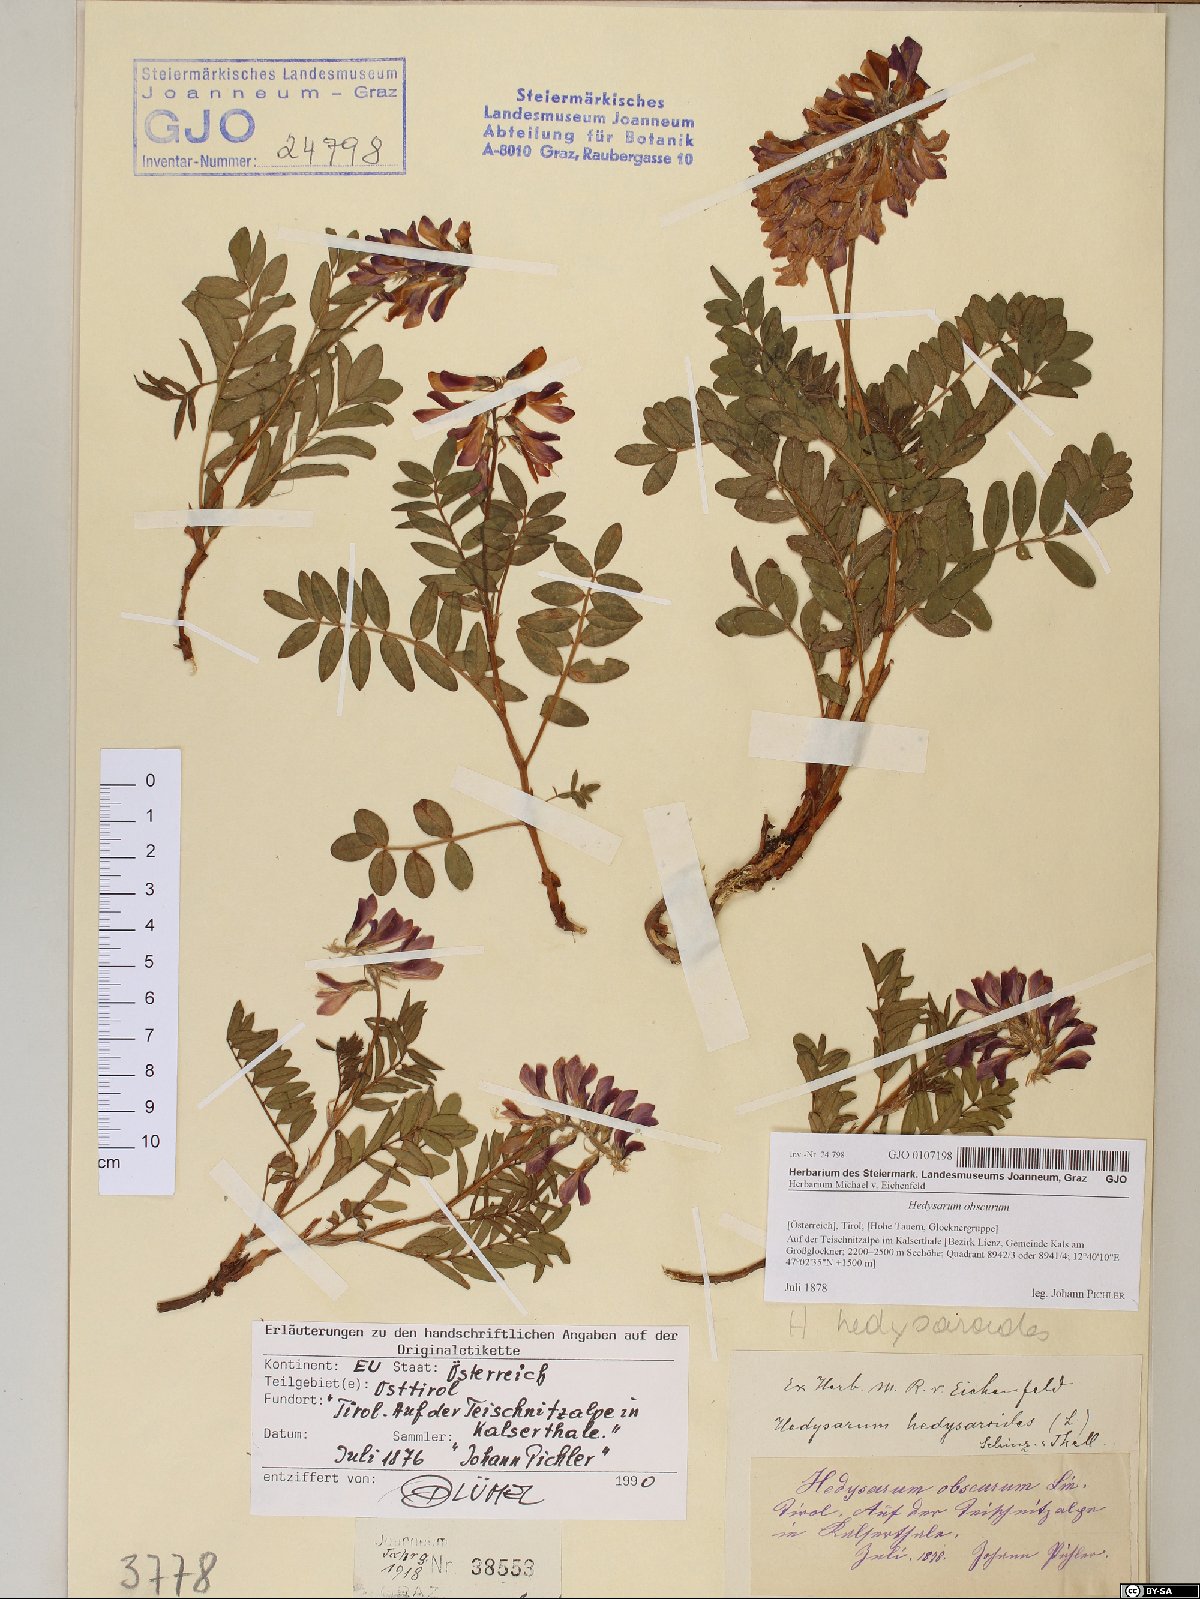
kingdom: Plantae
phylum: Tracheophyta
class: Magnoliopsida
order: Fabales
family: Fabaceae
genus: Hedysarum
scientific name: Hedysarum hedysaroides
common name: Alpine french-honeysuckle
